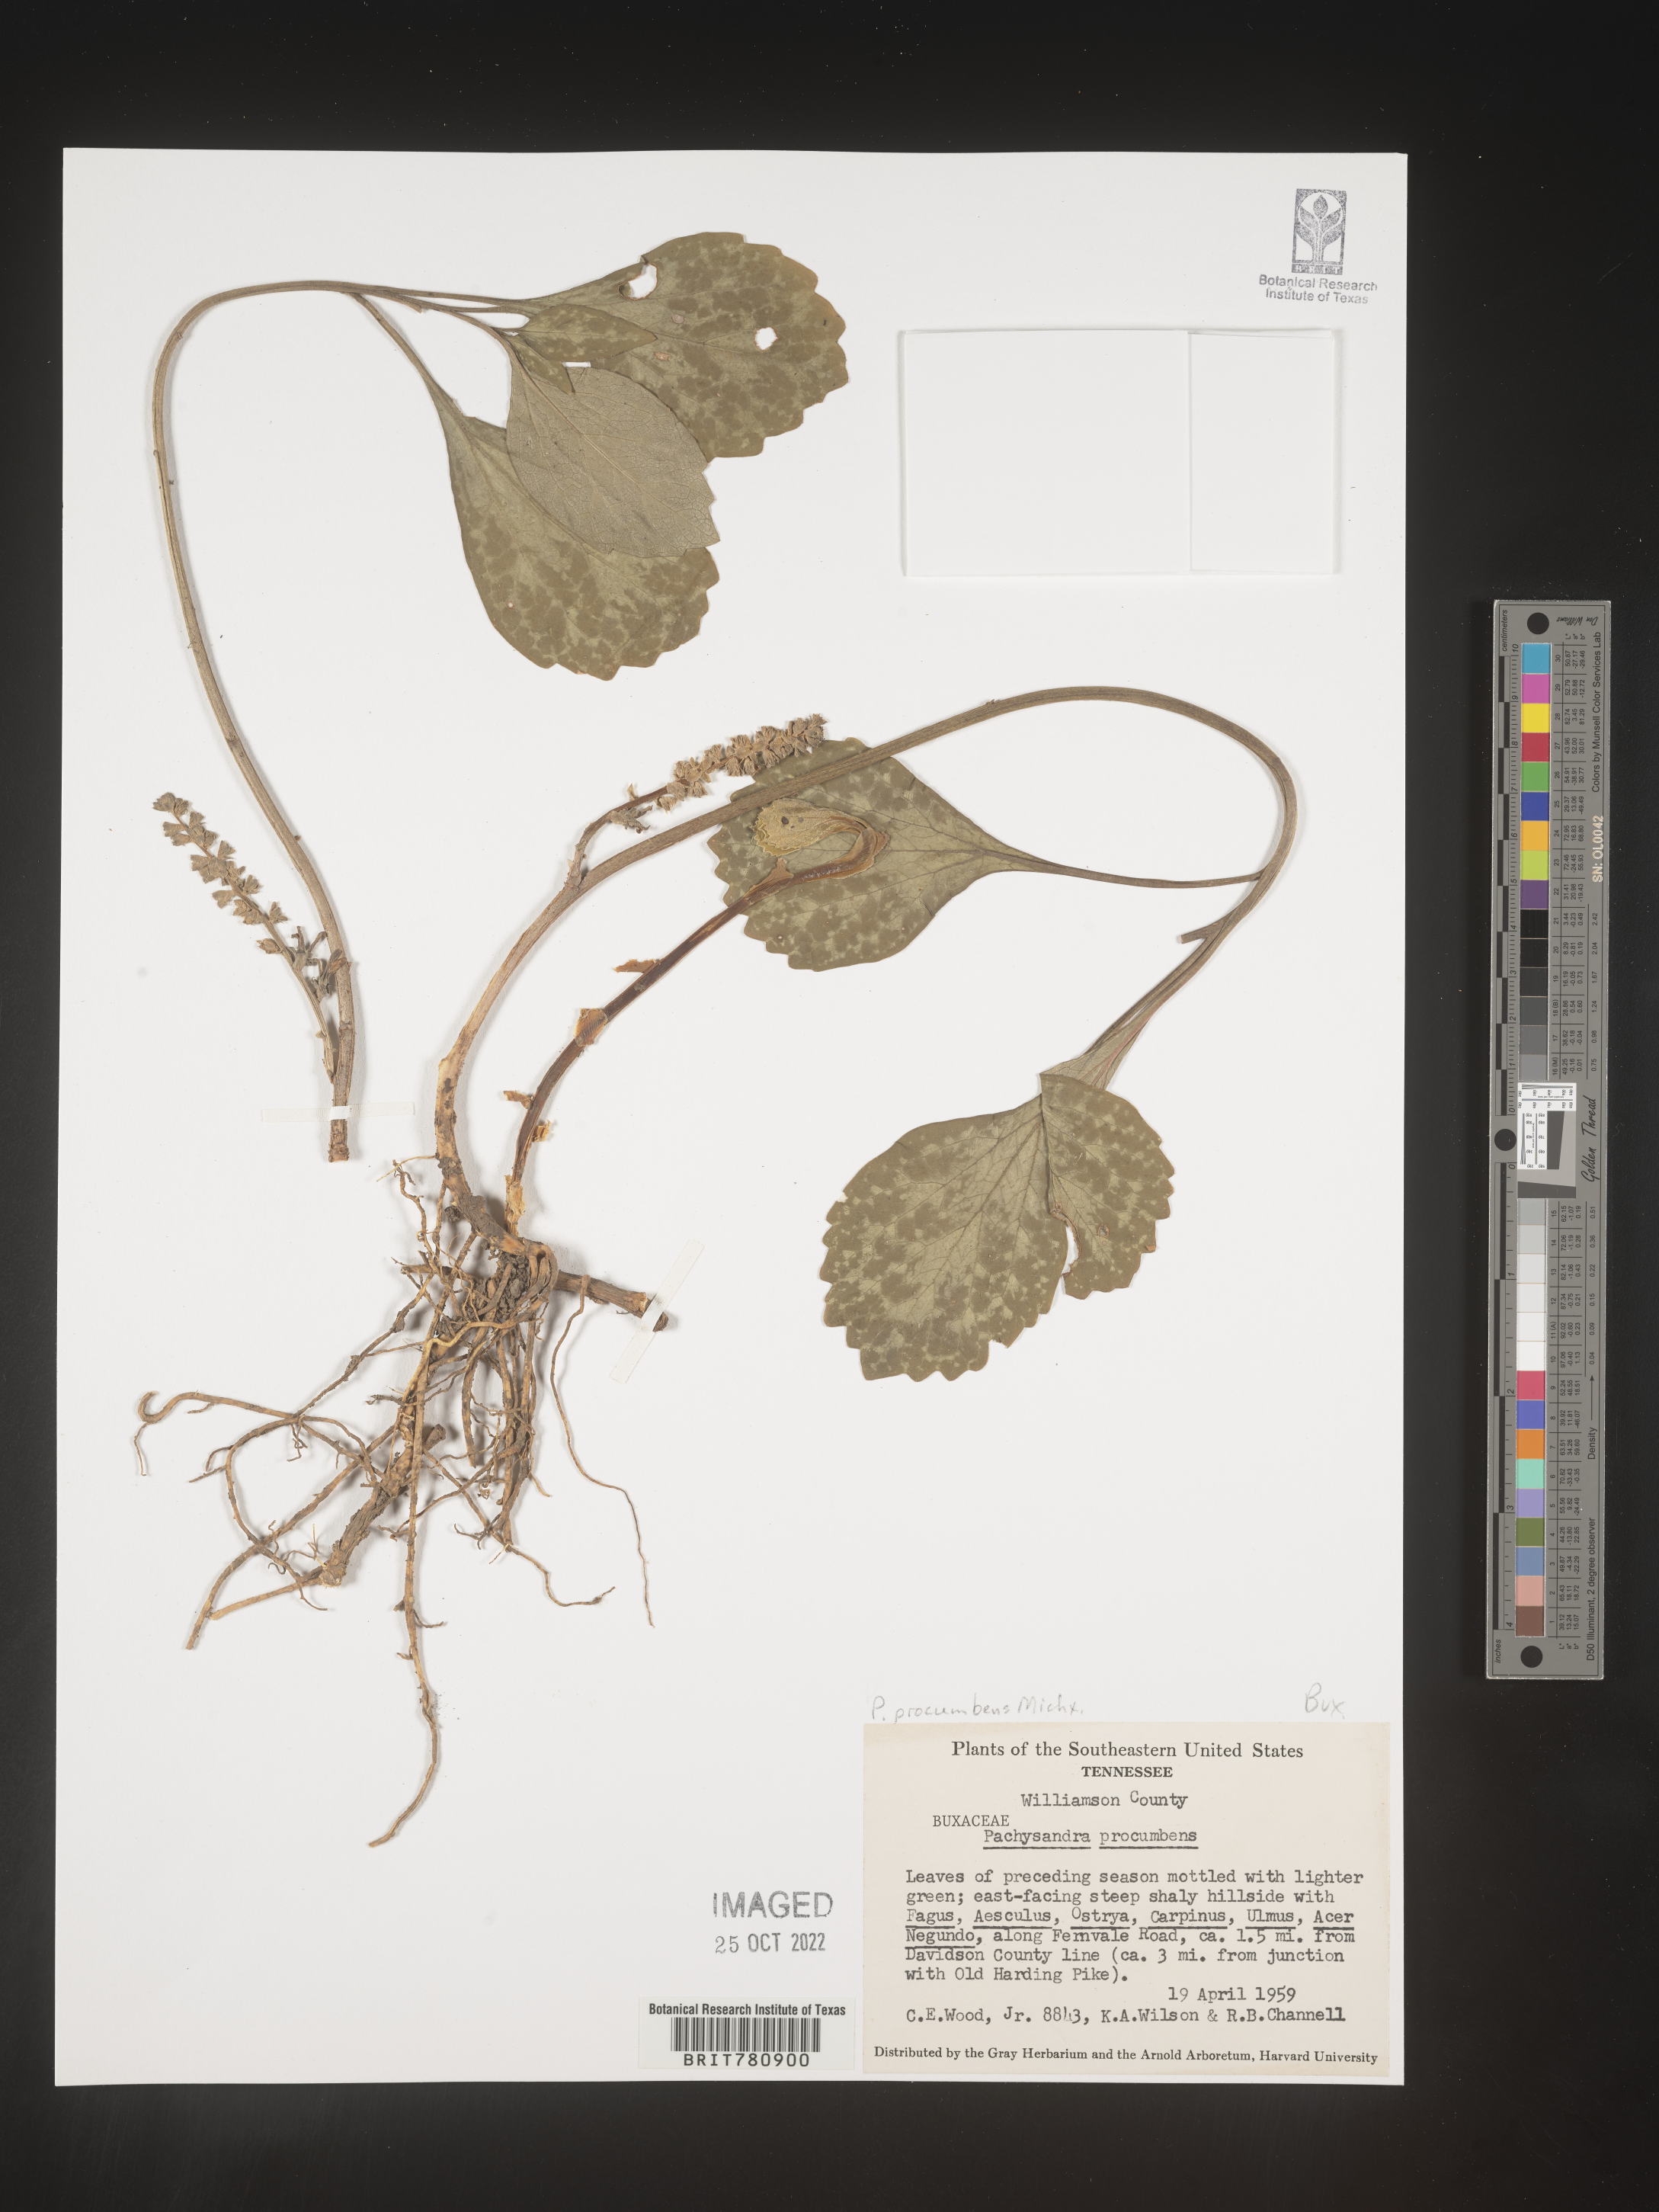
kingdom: Plantae
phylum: Tracheophyta
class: Magnoliopsida
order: Buxales
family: Buxaceae
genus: Pachysandra
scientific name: Pachysandra
